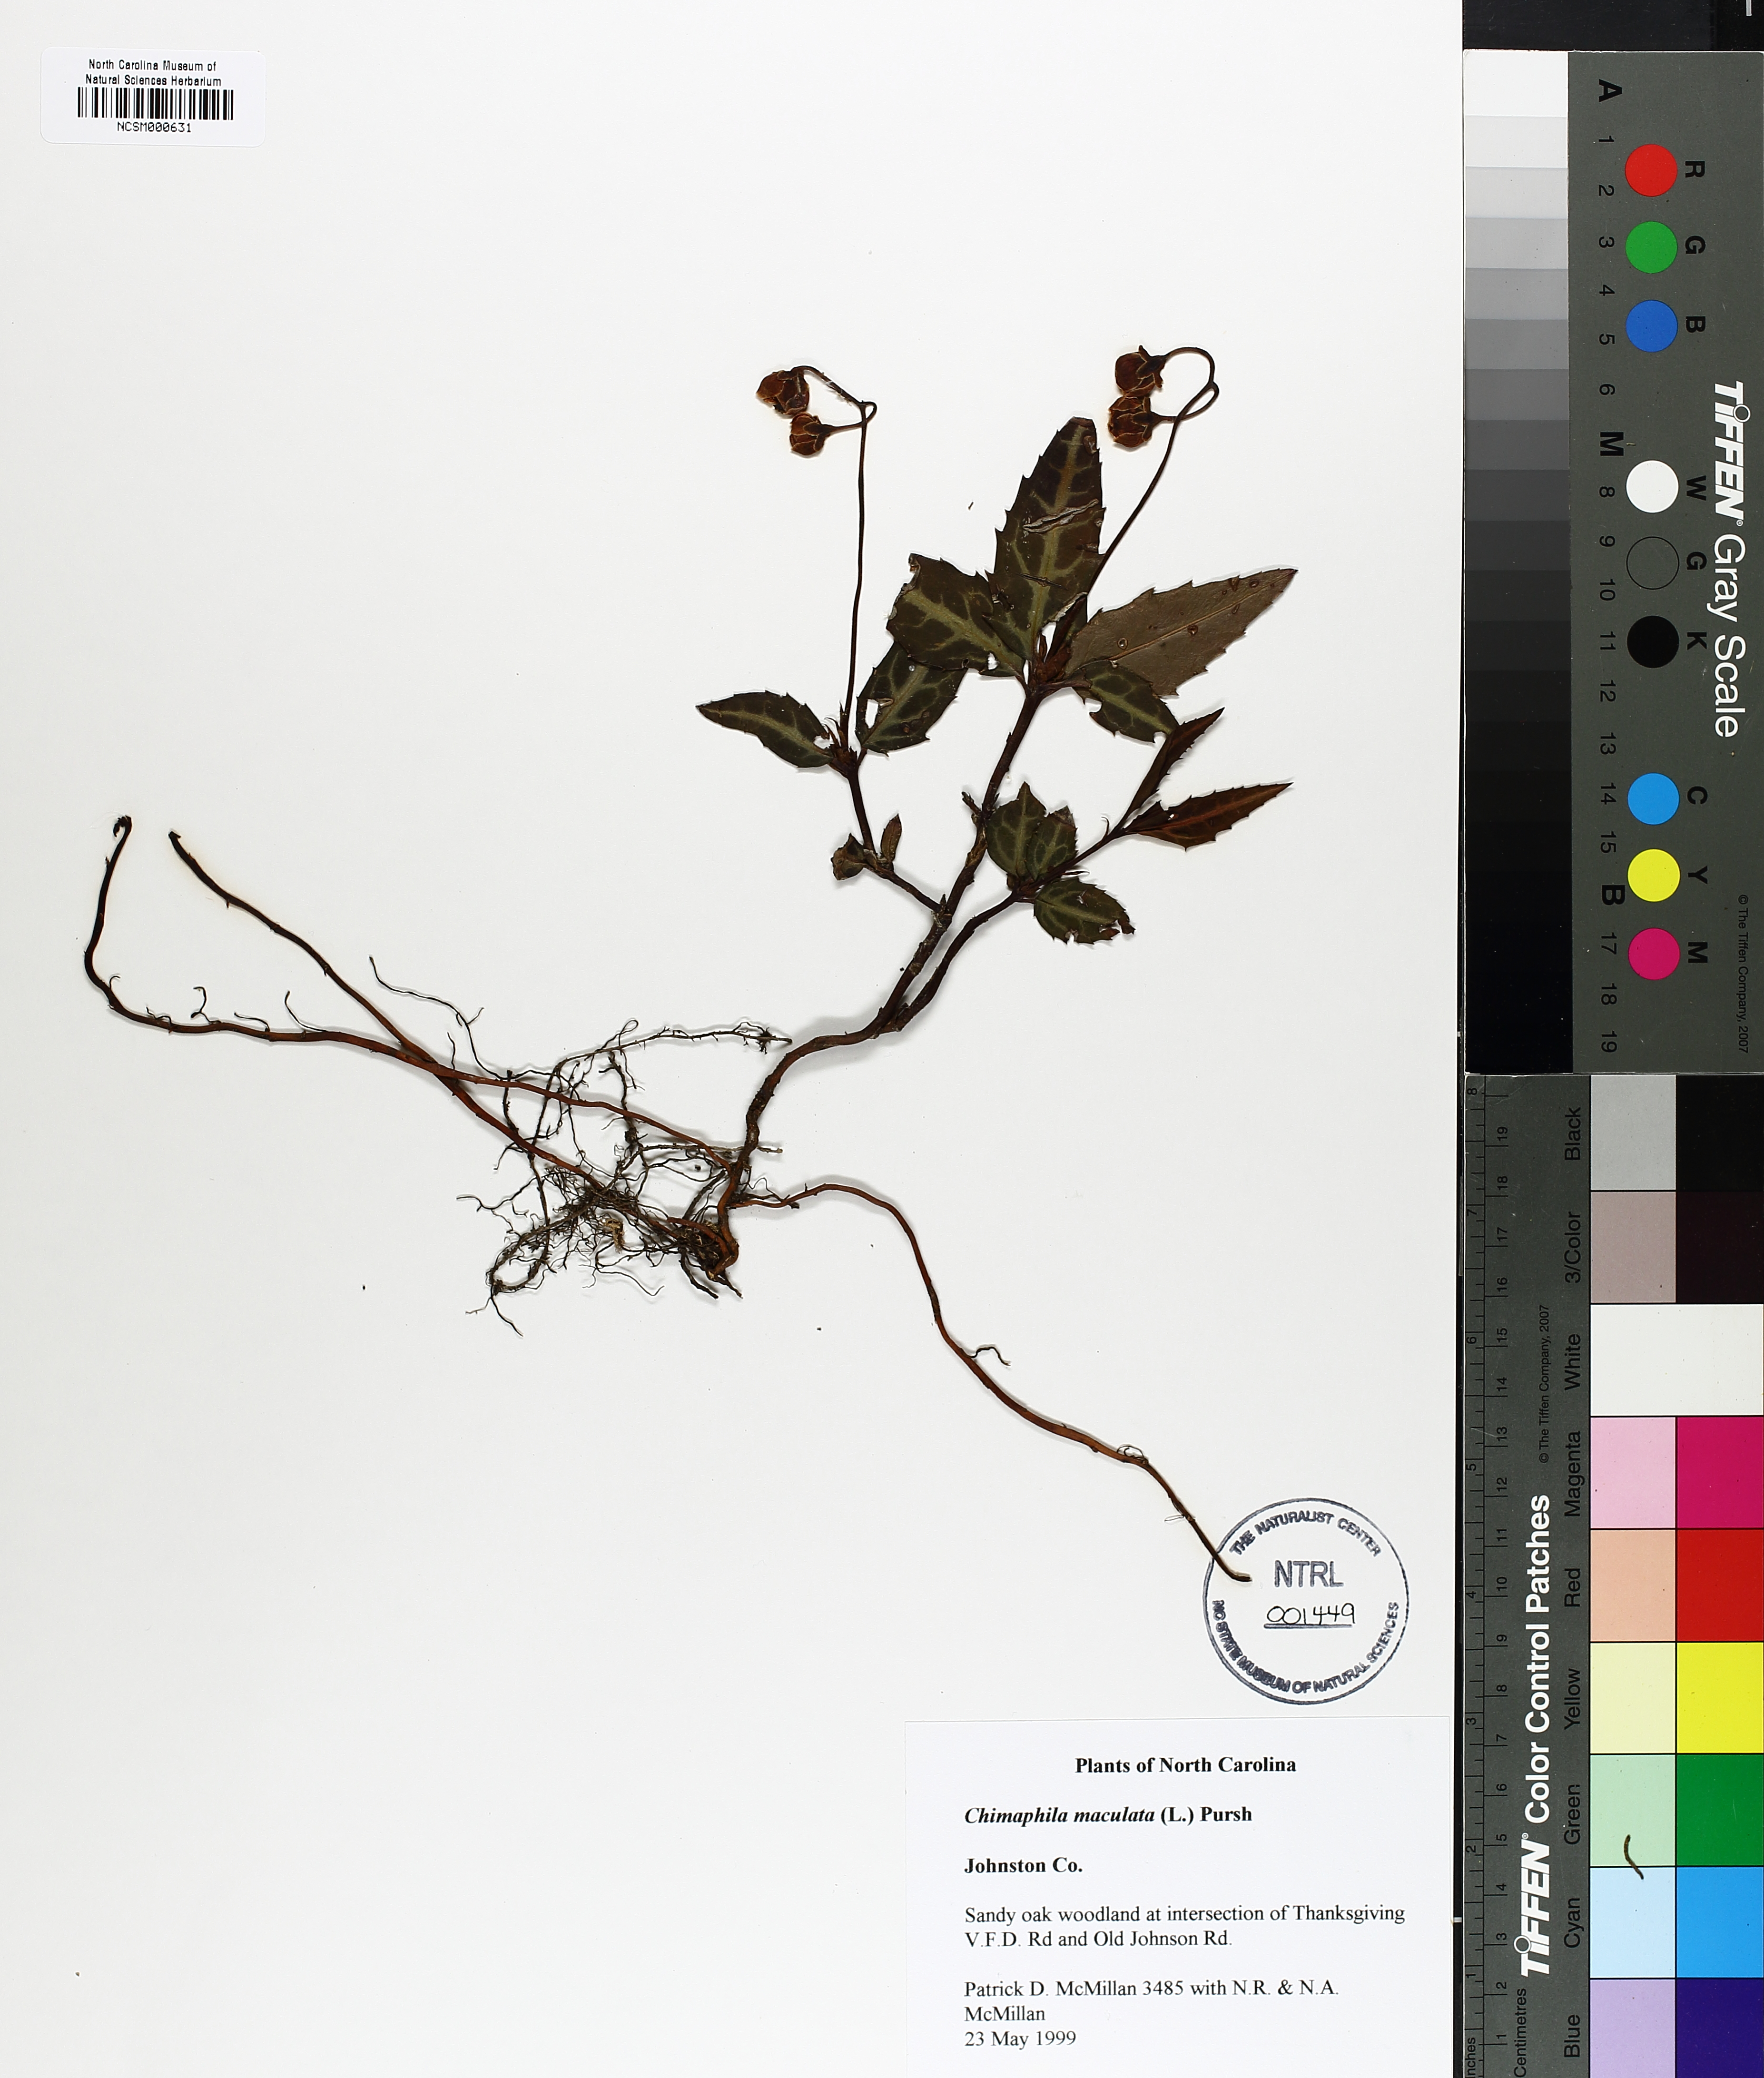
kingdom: Plantae
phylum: Tracheophyta
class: Magnoliopsida
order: Ericales
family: Ericaceae
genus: Chimaphila
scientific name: Chimaphila maculata
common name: Spotted pipsissewa
